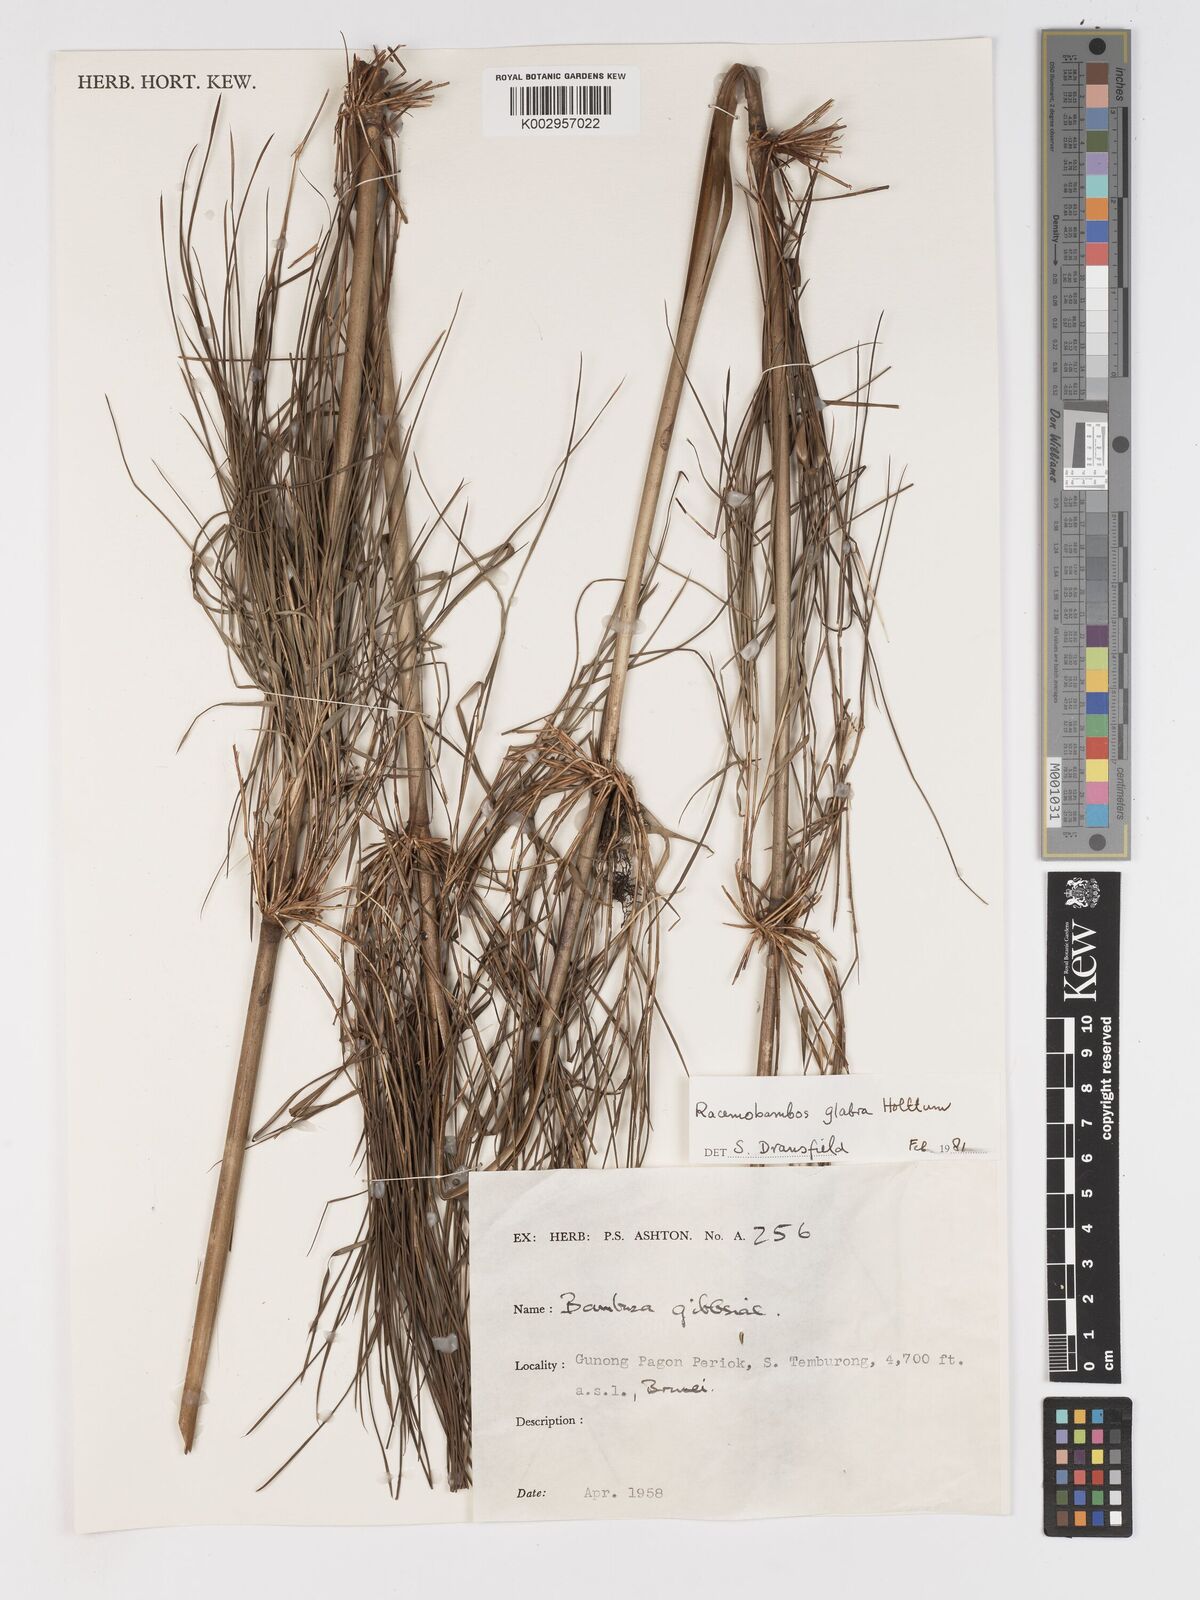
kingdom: Plantae
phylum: Tracheophyta
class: Liliopsida
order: Poales
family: Poaceae
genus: Racemobambos
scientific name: Racemobambos
